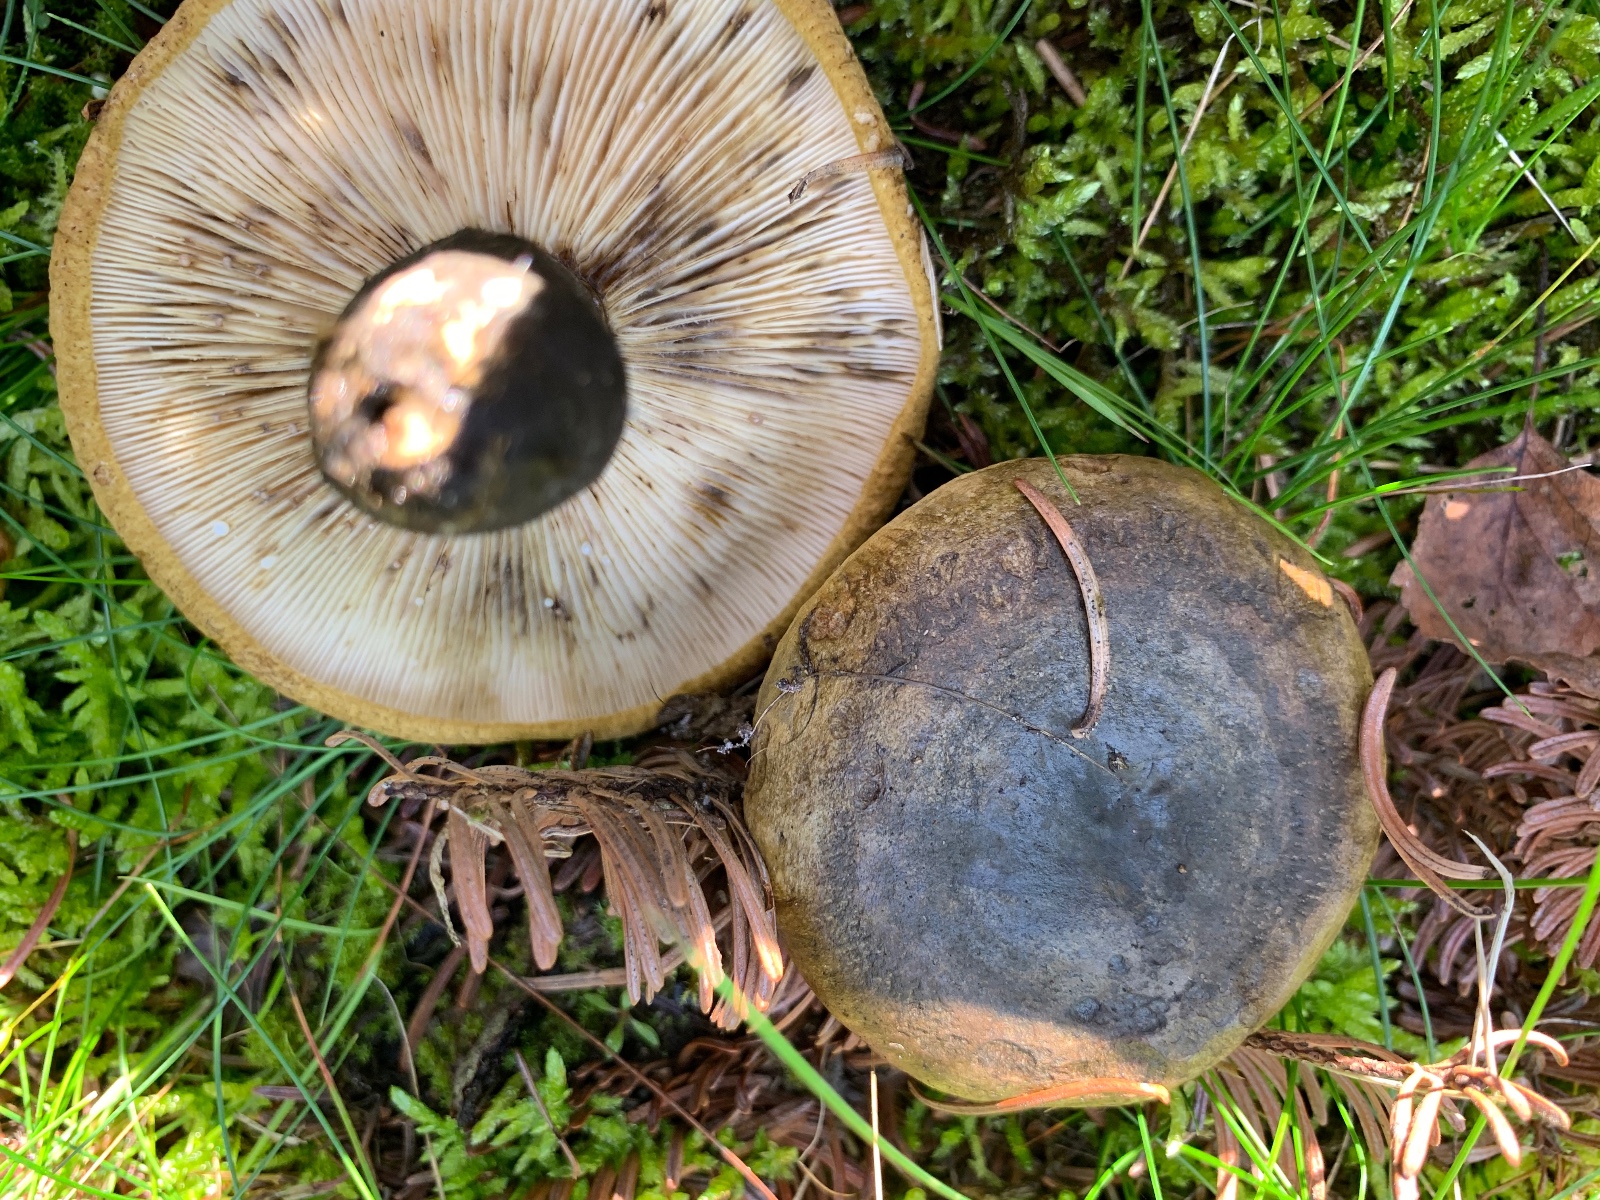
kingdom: Fungi
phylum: Basidiomycota
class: Agaricomycetes
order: Russulales
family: Russulaceae
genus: Lactarius
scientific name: Lactarius necator
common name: manddraber-mælkehat
